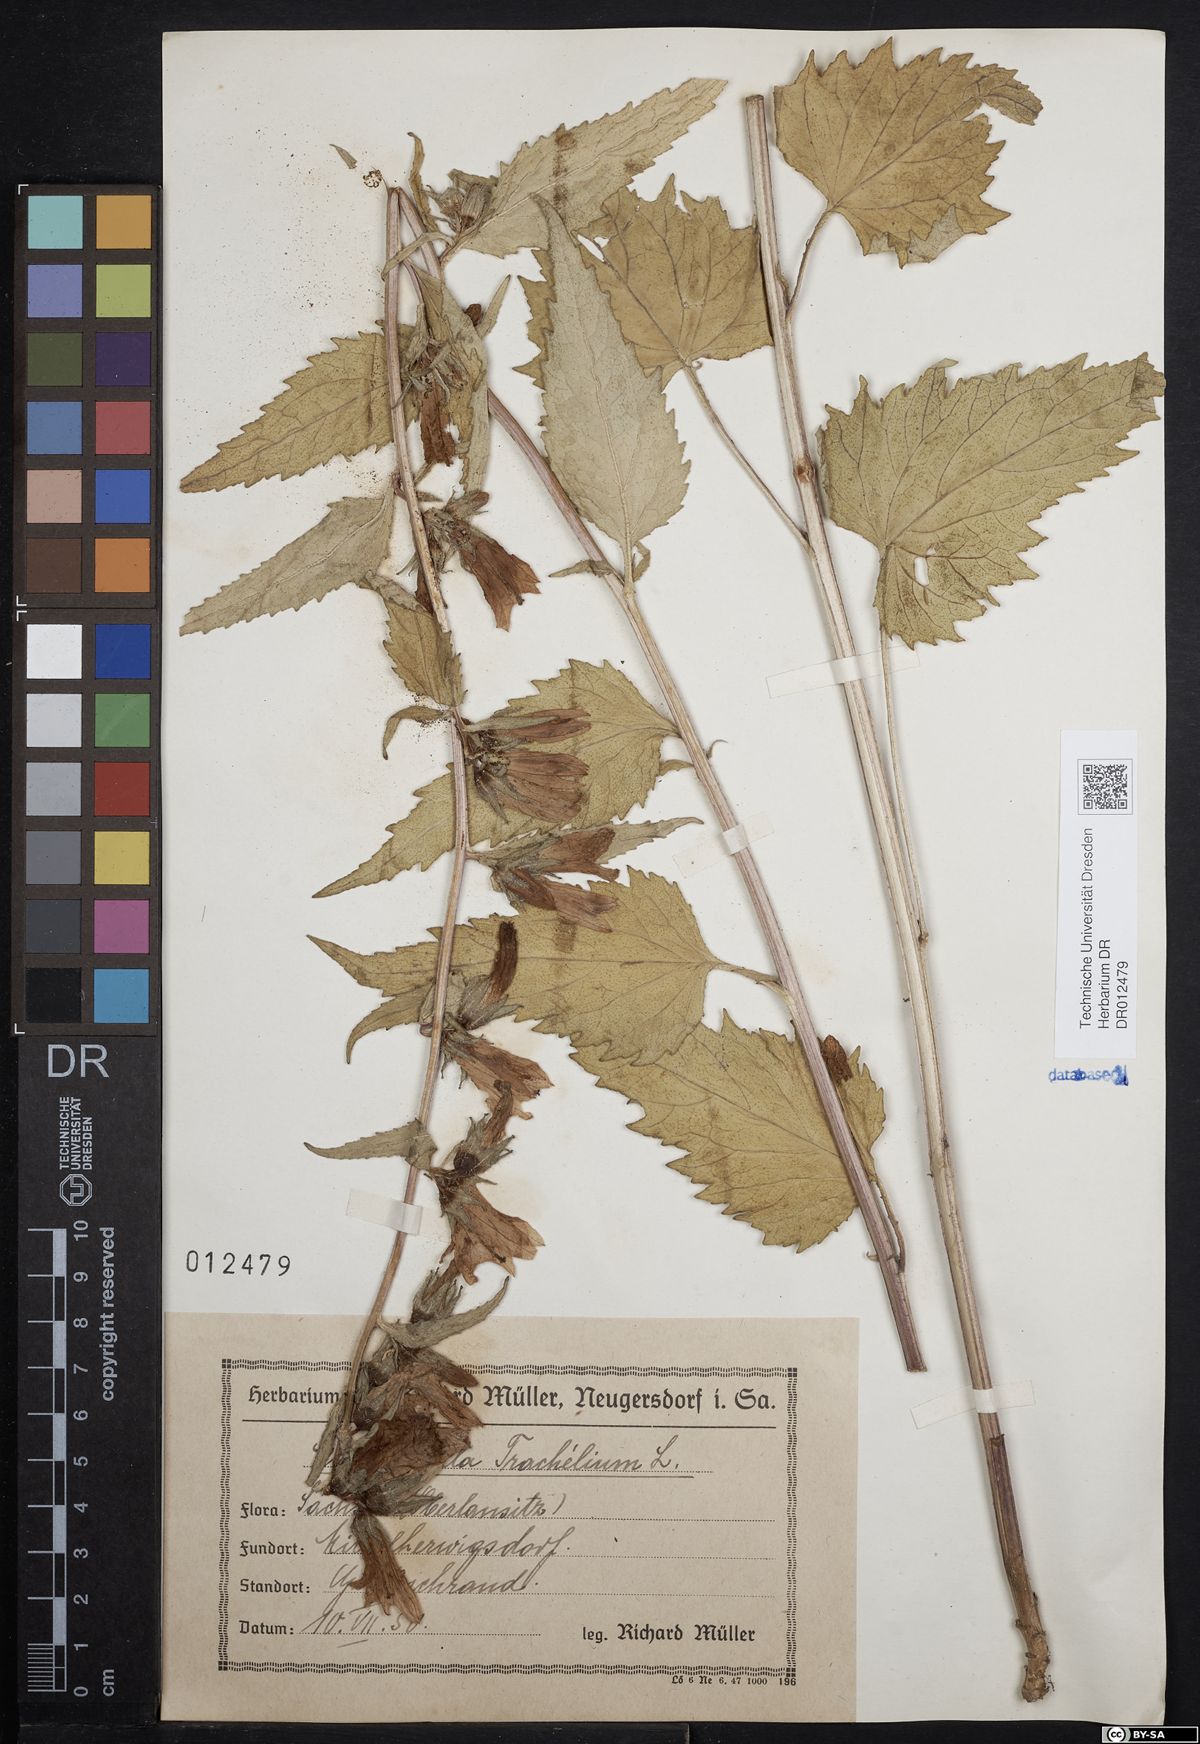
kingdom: Plantae
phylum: Tracheophyta
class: Magnoliopsida
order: Asterales
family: Campanulaceae
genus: Campanula
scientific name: Campanula trachelium
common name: Nettle-leaved bellflower
